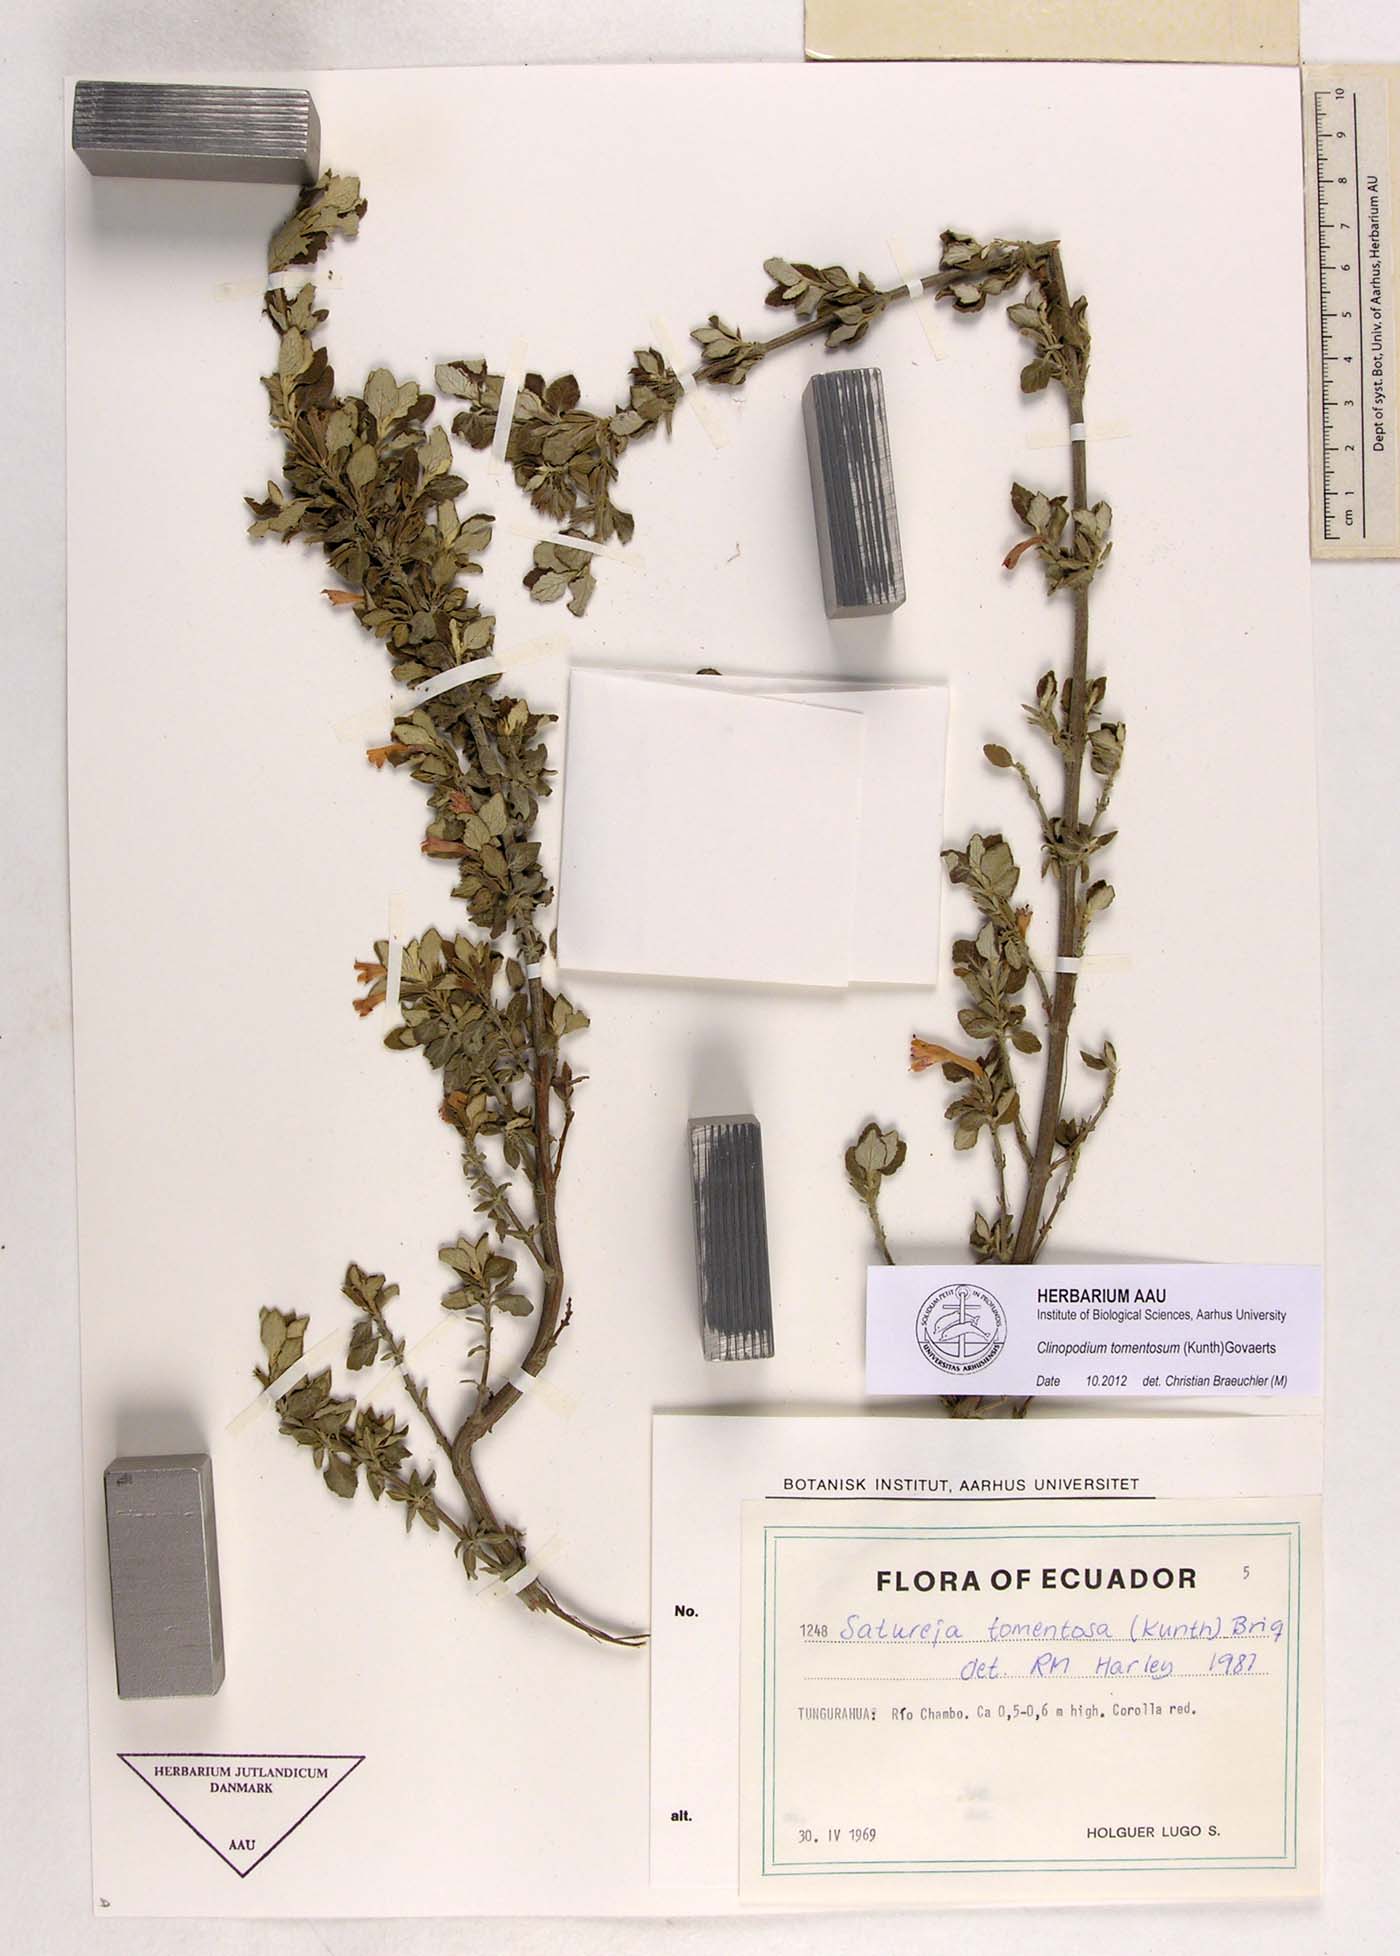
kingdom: Plantae
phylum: Tracheophyta
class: Magnoliopsida
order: Lamiales
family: Lamiaceae
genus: Clinopodium
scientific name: Clinopodium tomentosum
